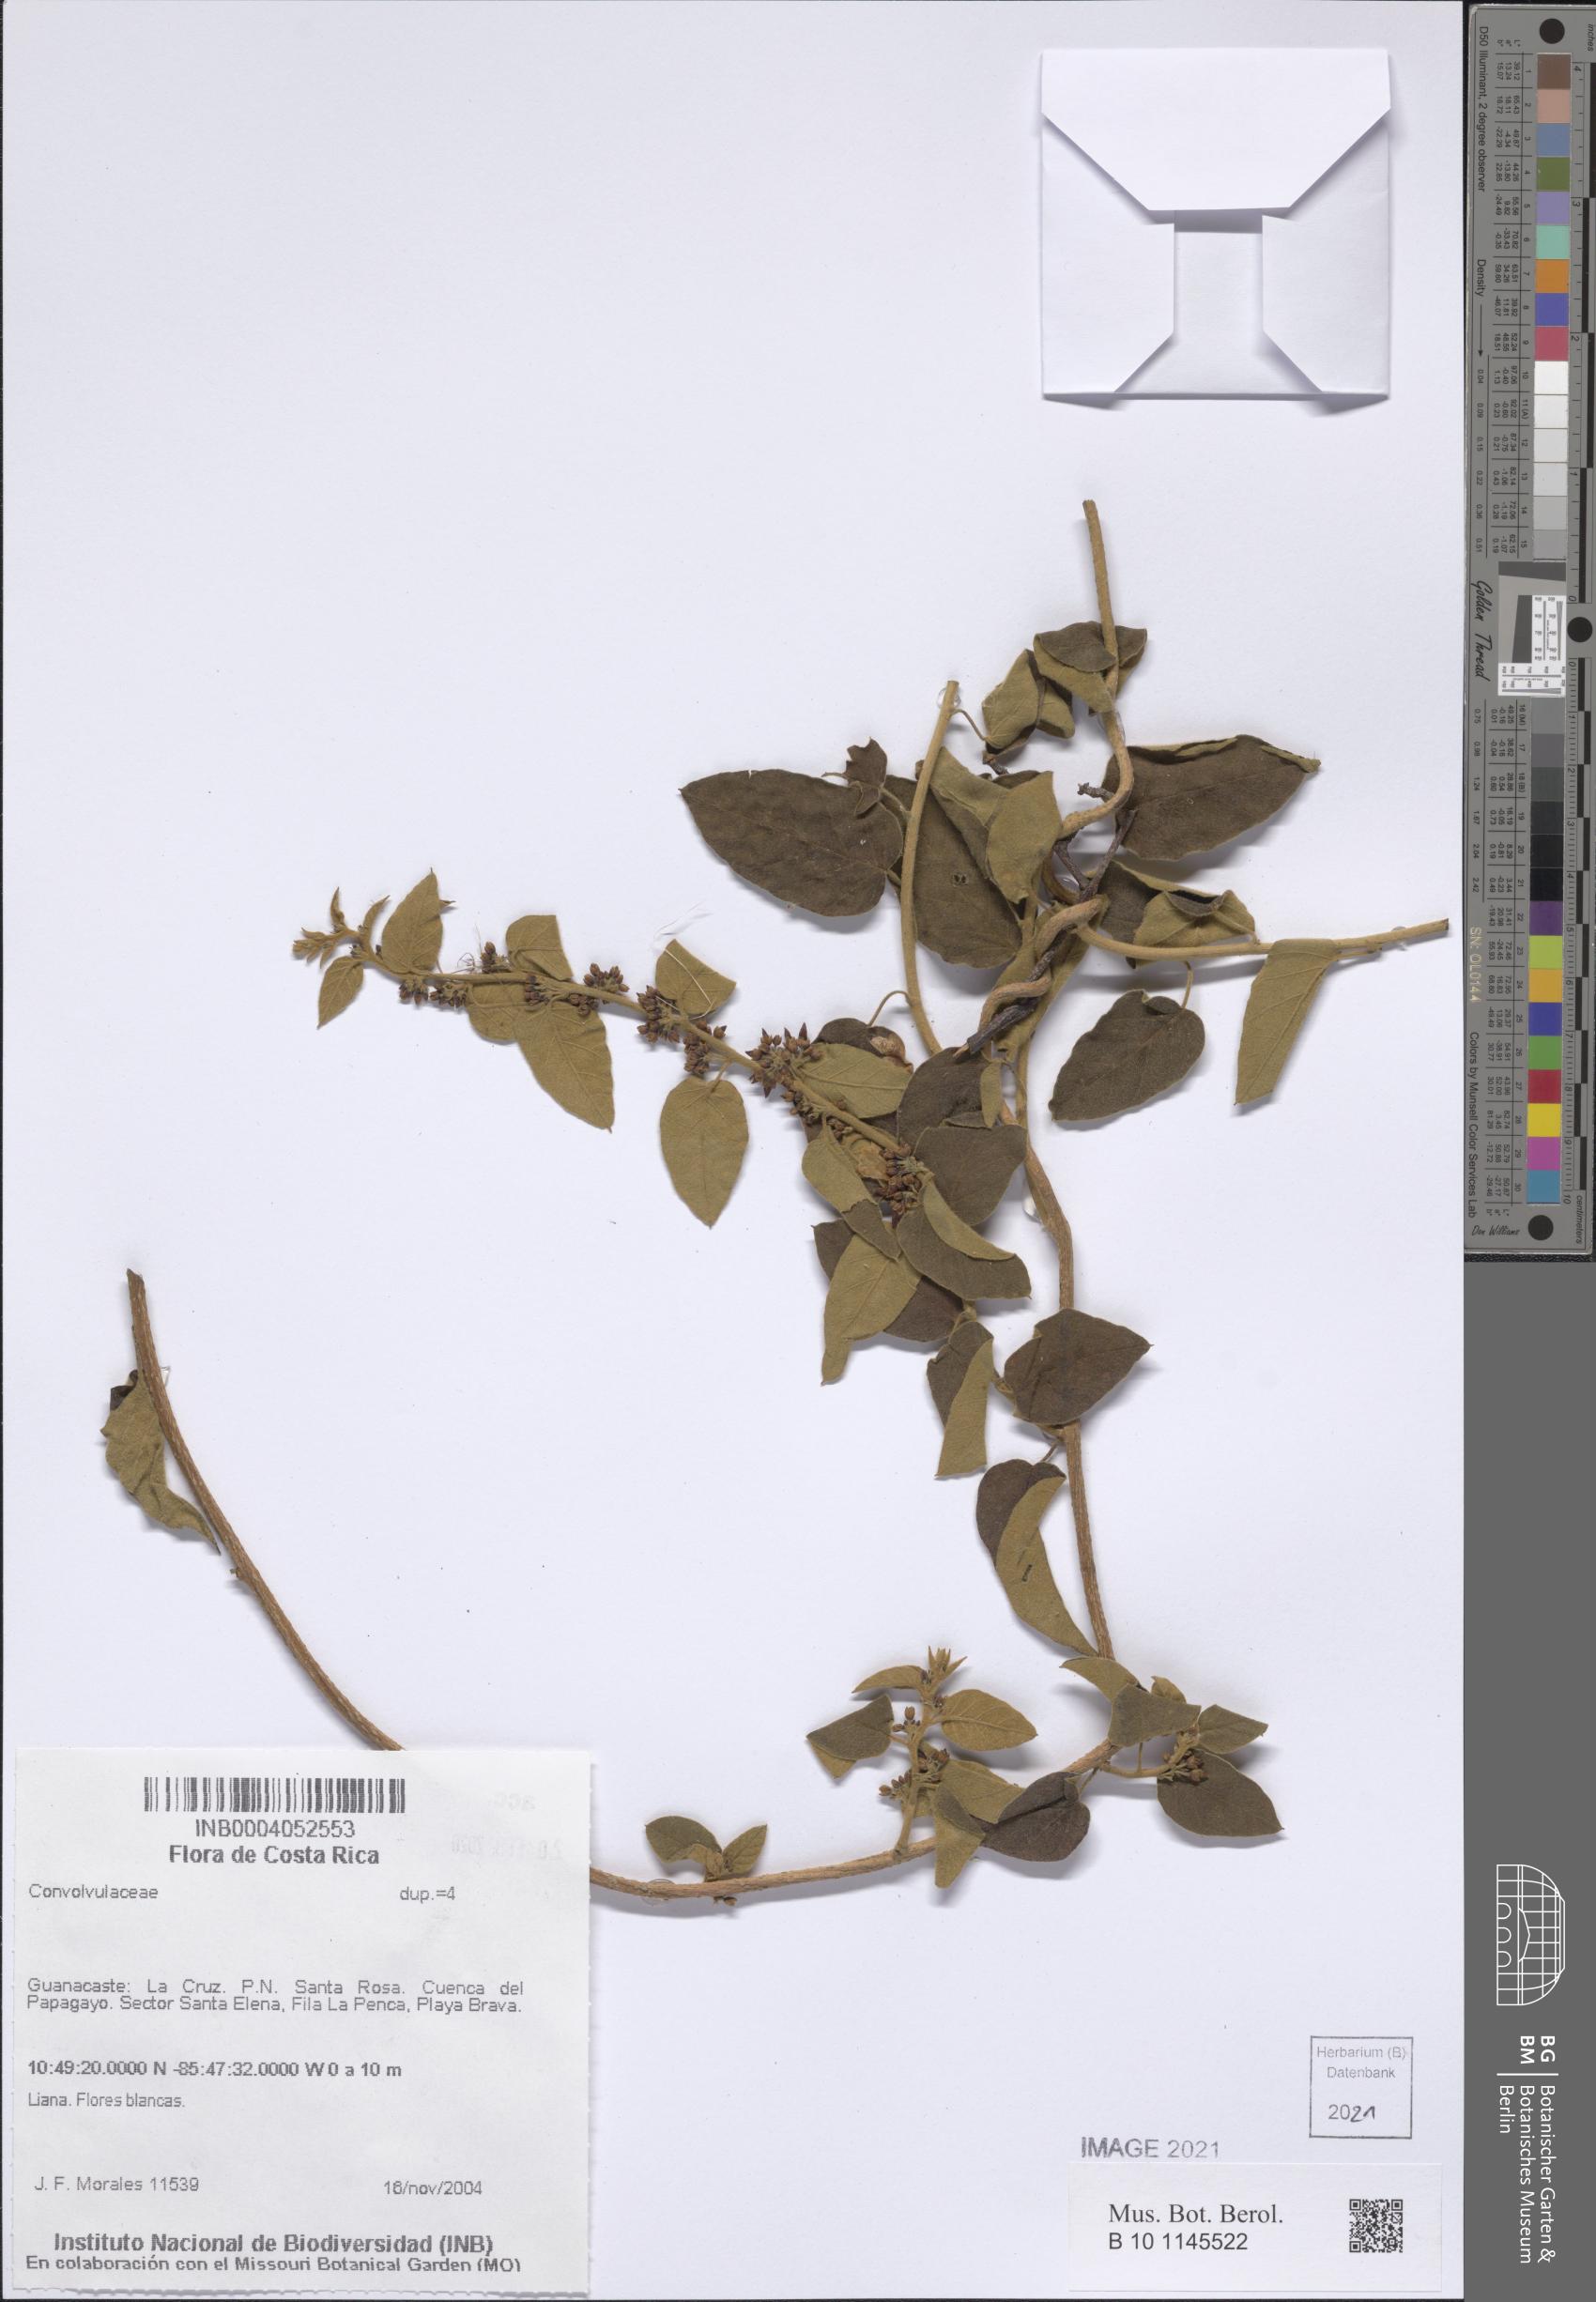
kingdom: Plantae
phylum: Tracheophyta
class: Magnoliopsida
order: Solanales
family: Convolvulaceae
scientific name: Convolvulaceae
